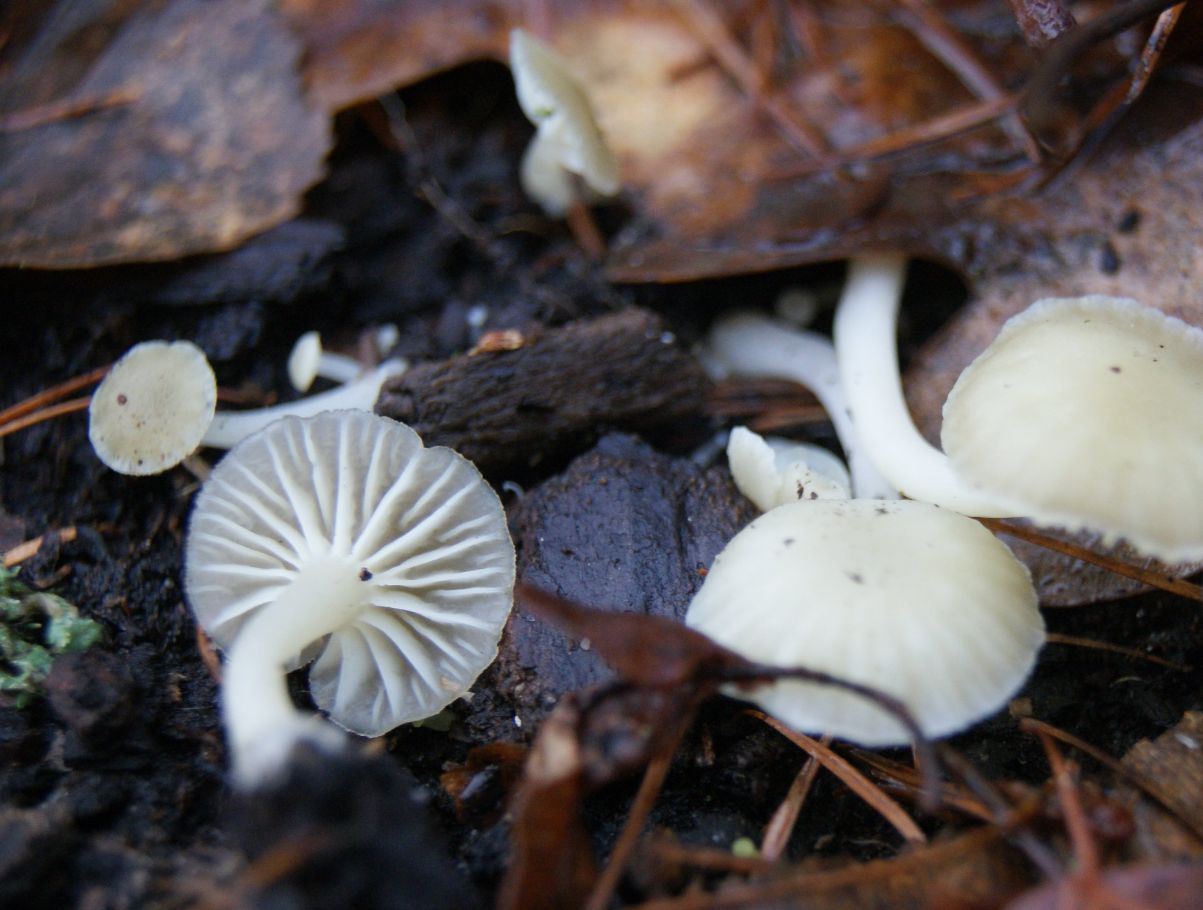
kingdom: Fungi
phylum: Basidiomycota
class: Agaricomycetes
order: Agaricales
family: Hygrophoraceae
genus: Chrysomphalina
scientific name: Chrysomphalina grossula
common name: stød-gyldenblad
